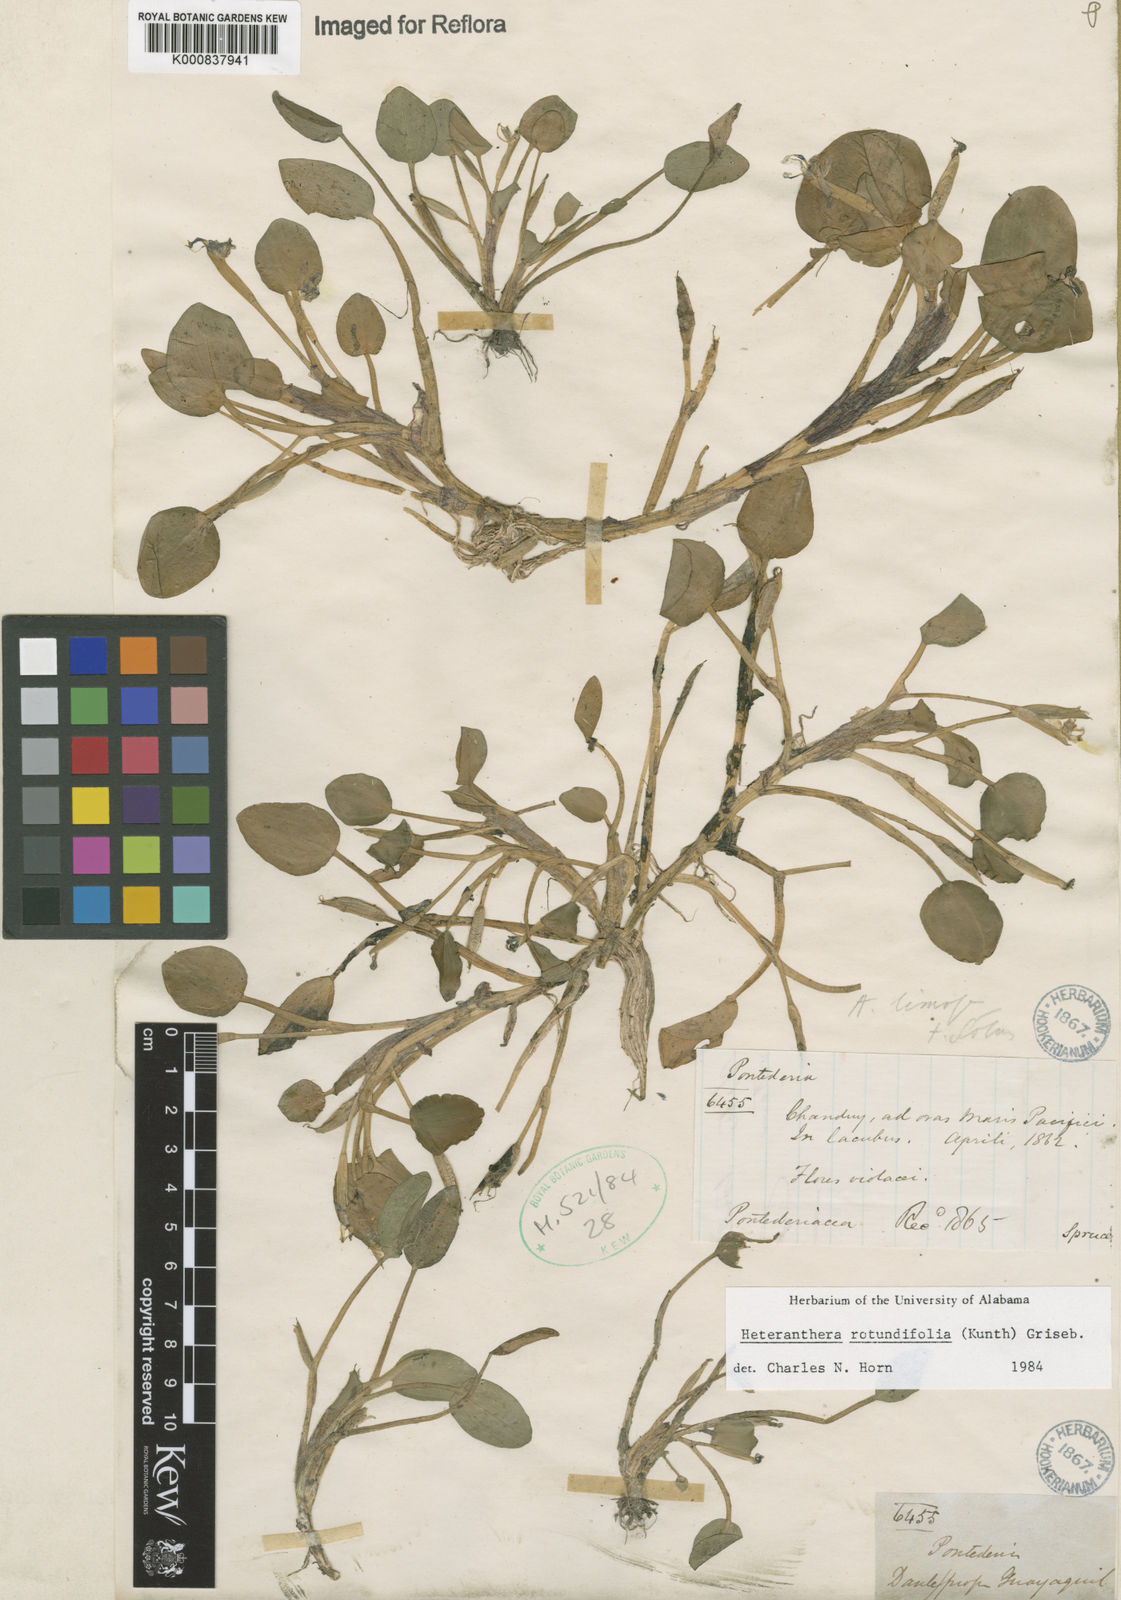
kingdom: Plantae
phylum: Tracheophyta
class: Liliopsida
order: Commelinales
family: Pontederiaceae
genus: Heteranthera
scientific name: Heteranthera rotundifolia
